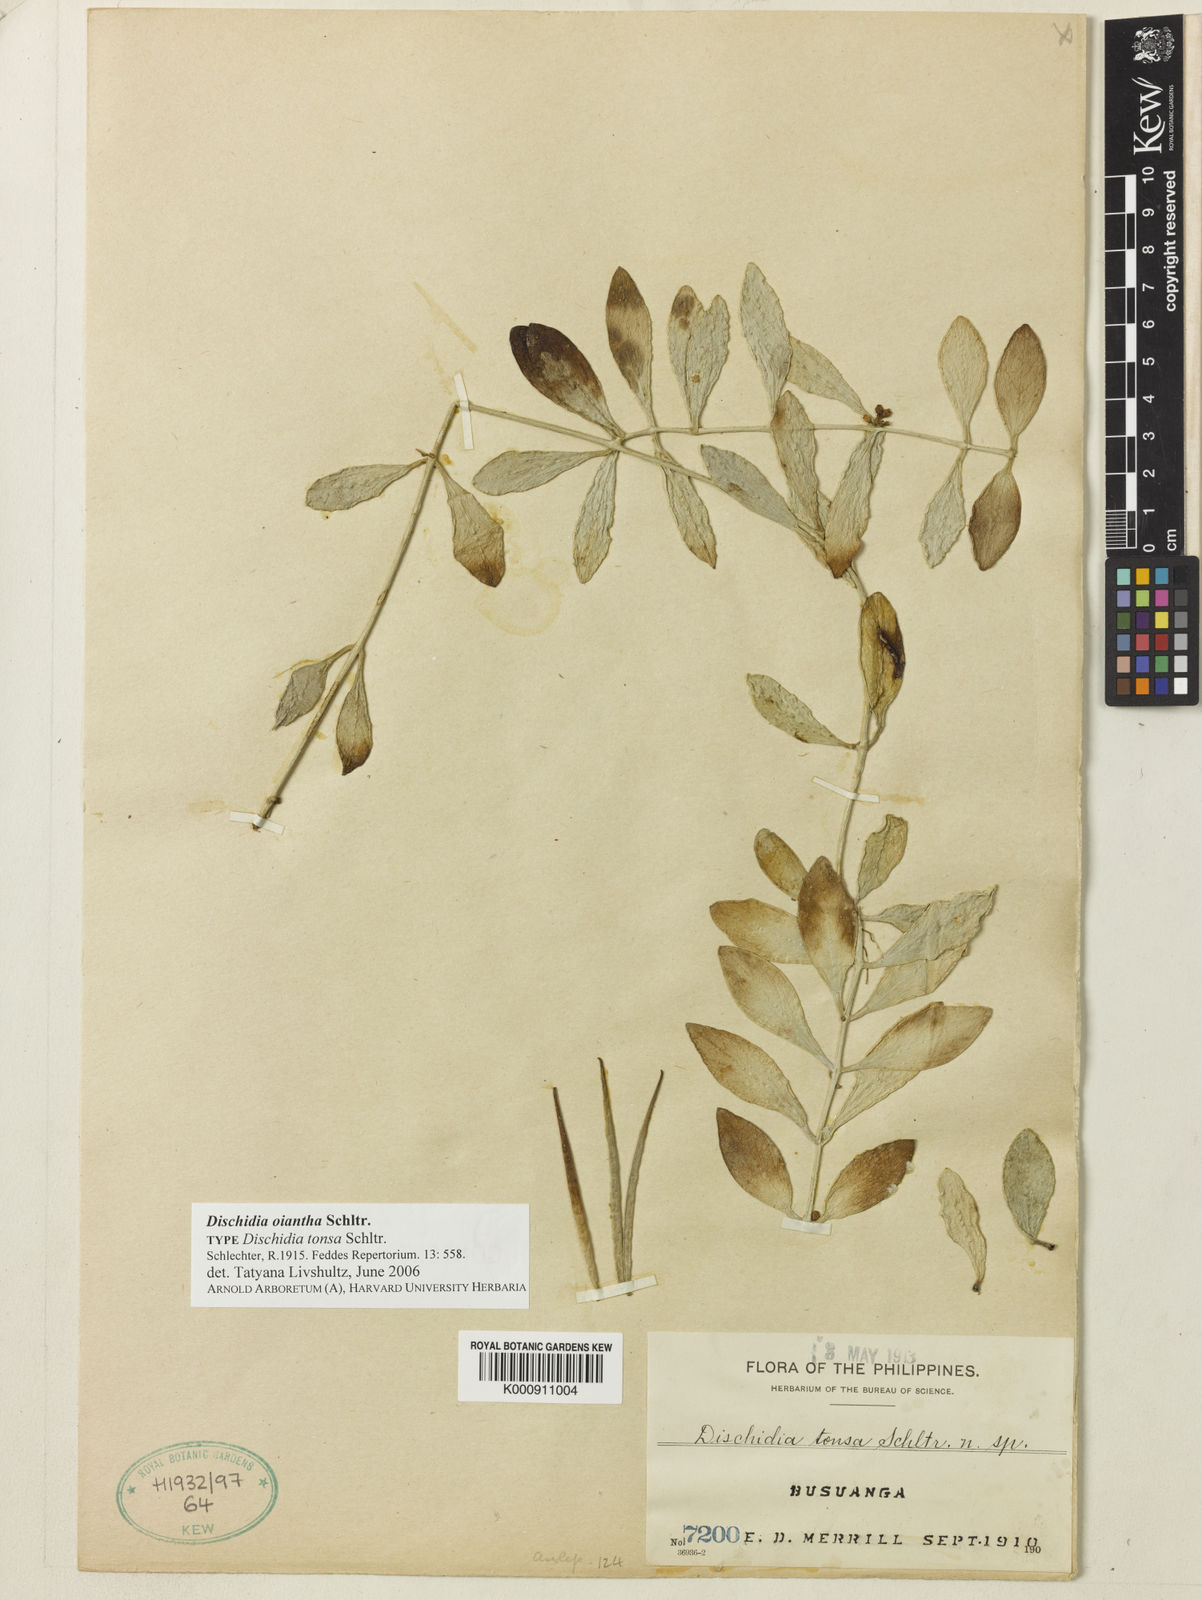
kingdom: Plantae
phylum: Tracheophyta
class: Magnoliopsida
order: Gentianales
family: Apocynaceae
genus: Dischidia
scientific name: Dischidia oiantha
